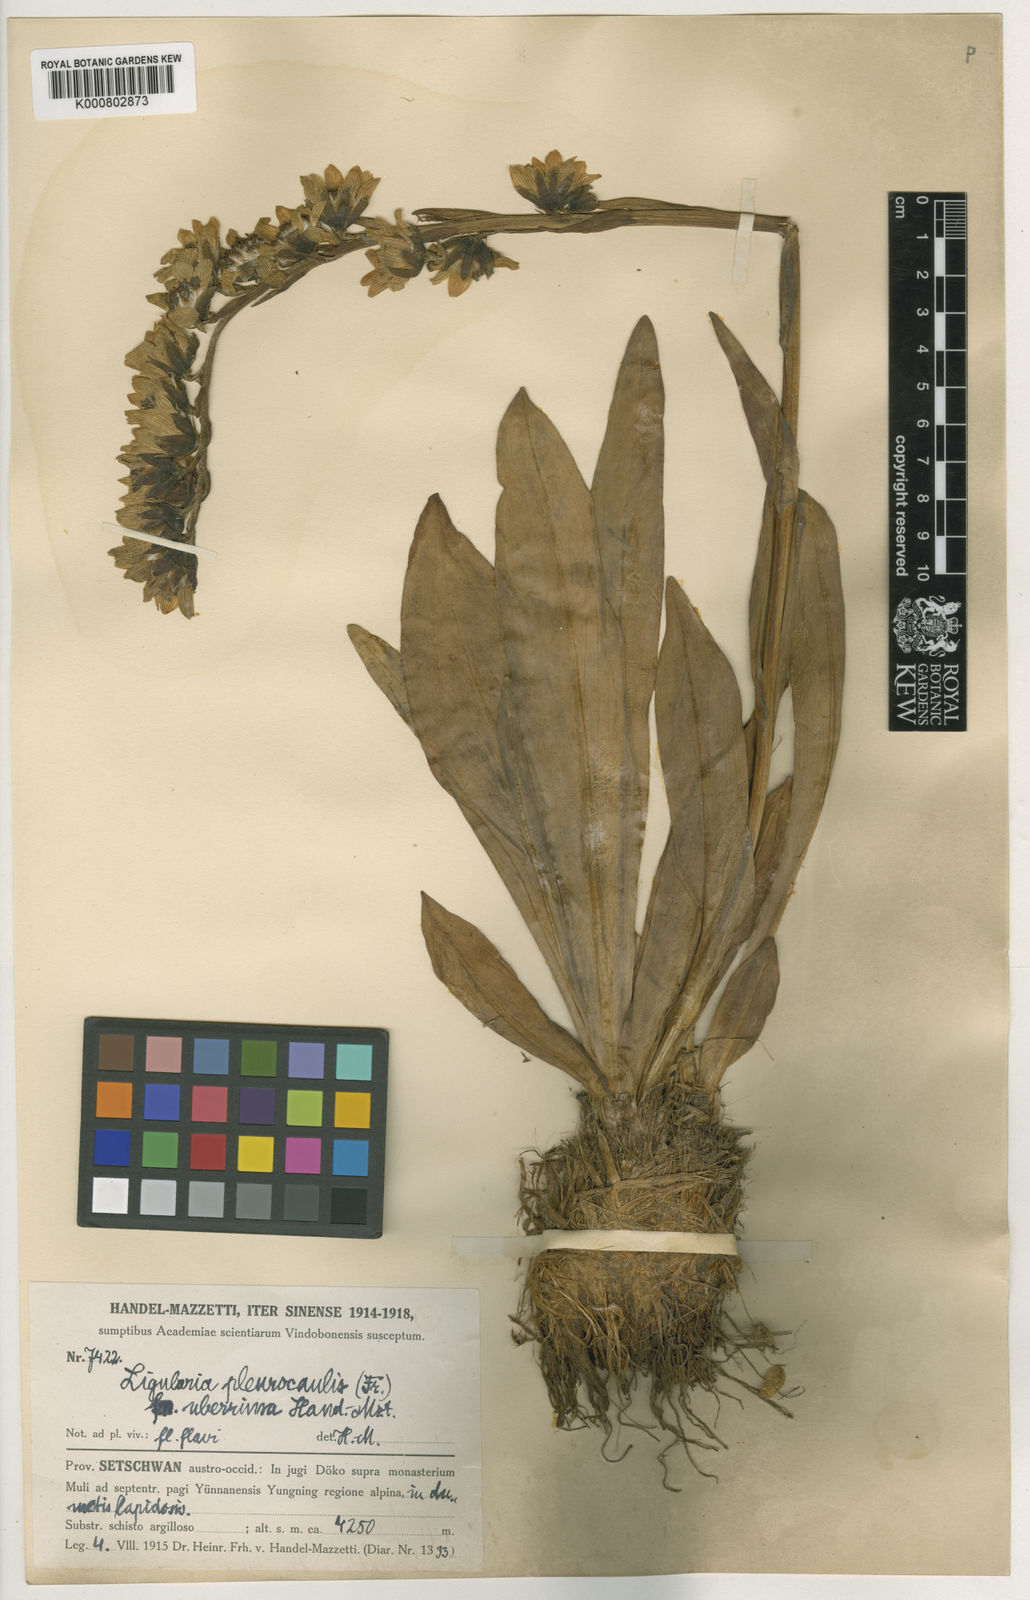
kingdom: Plantae
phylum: Tracheophyta
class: Magnoliopsida
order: Asterales
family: Asteraceae
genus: Ligularia
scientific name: Ligularia pleurocaulis
